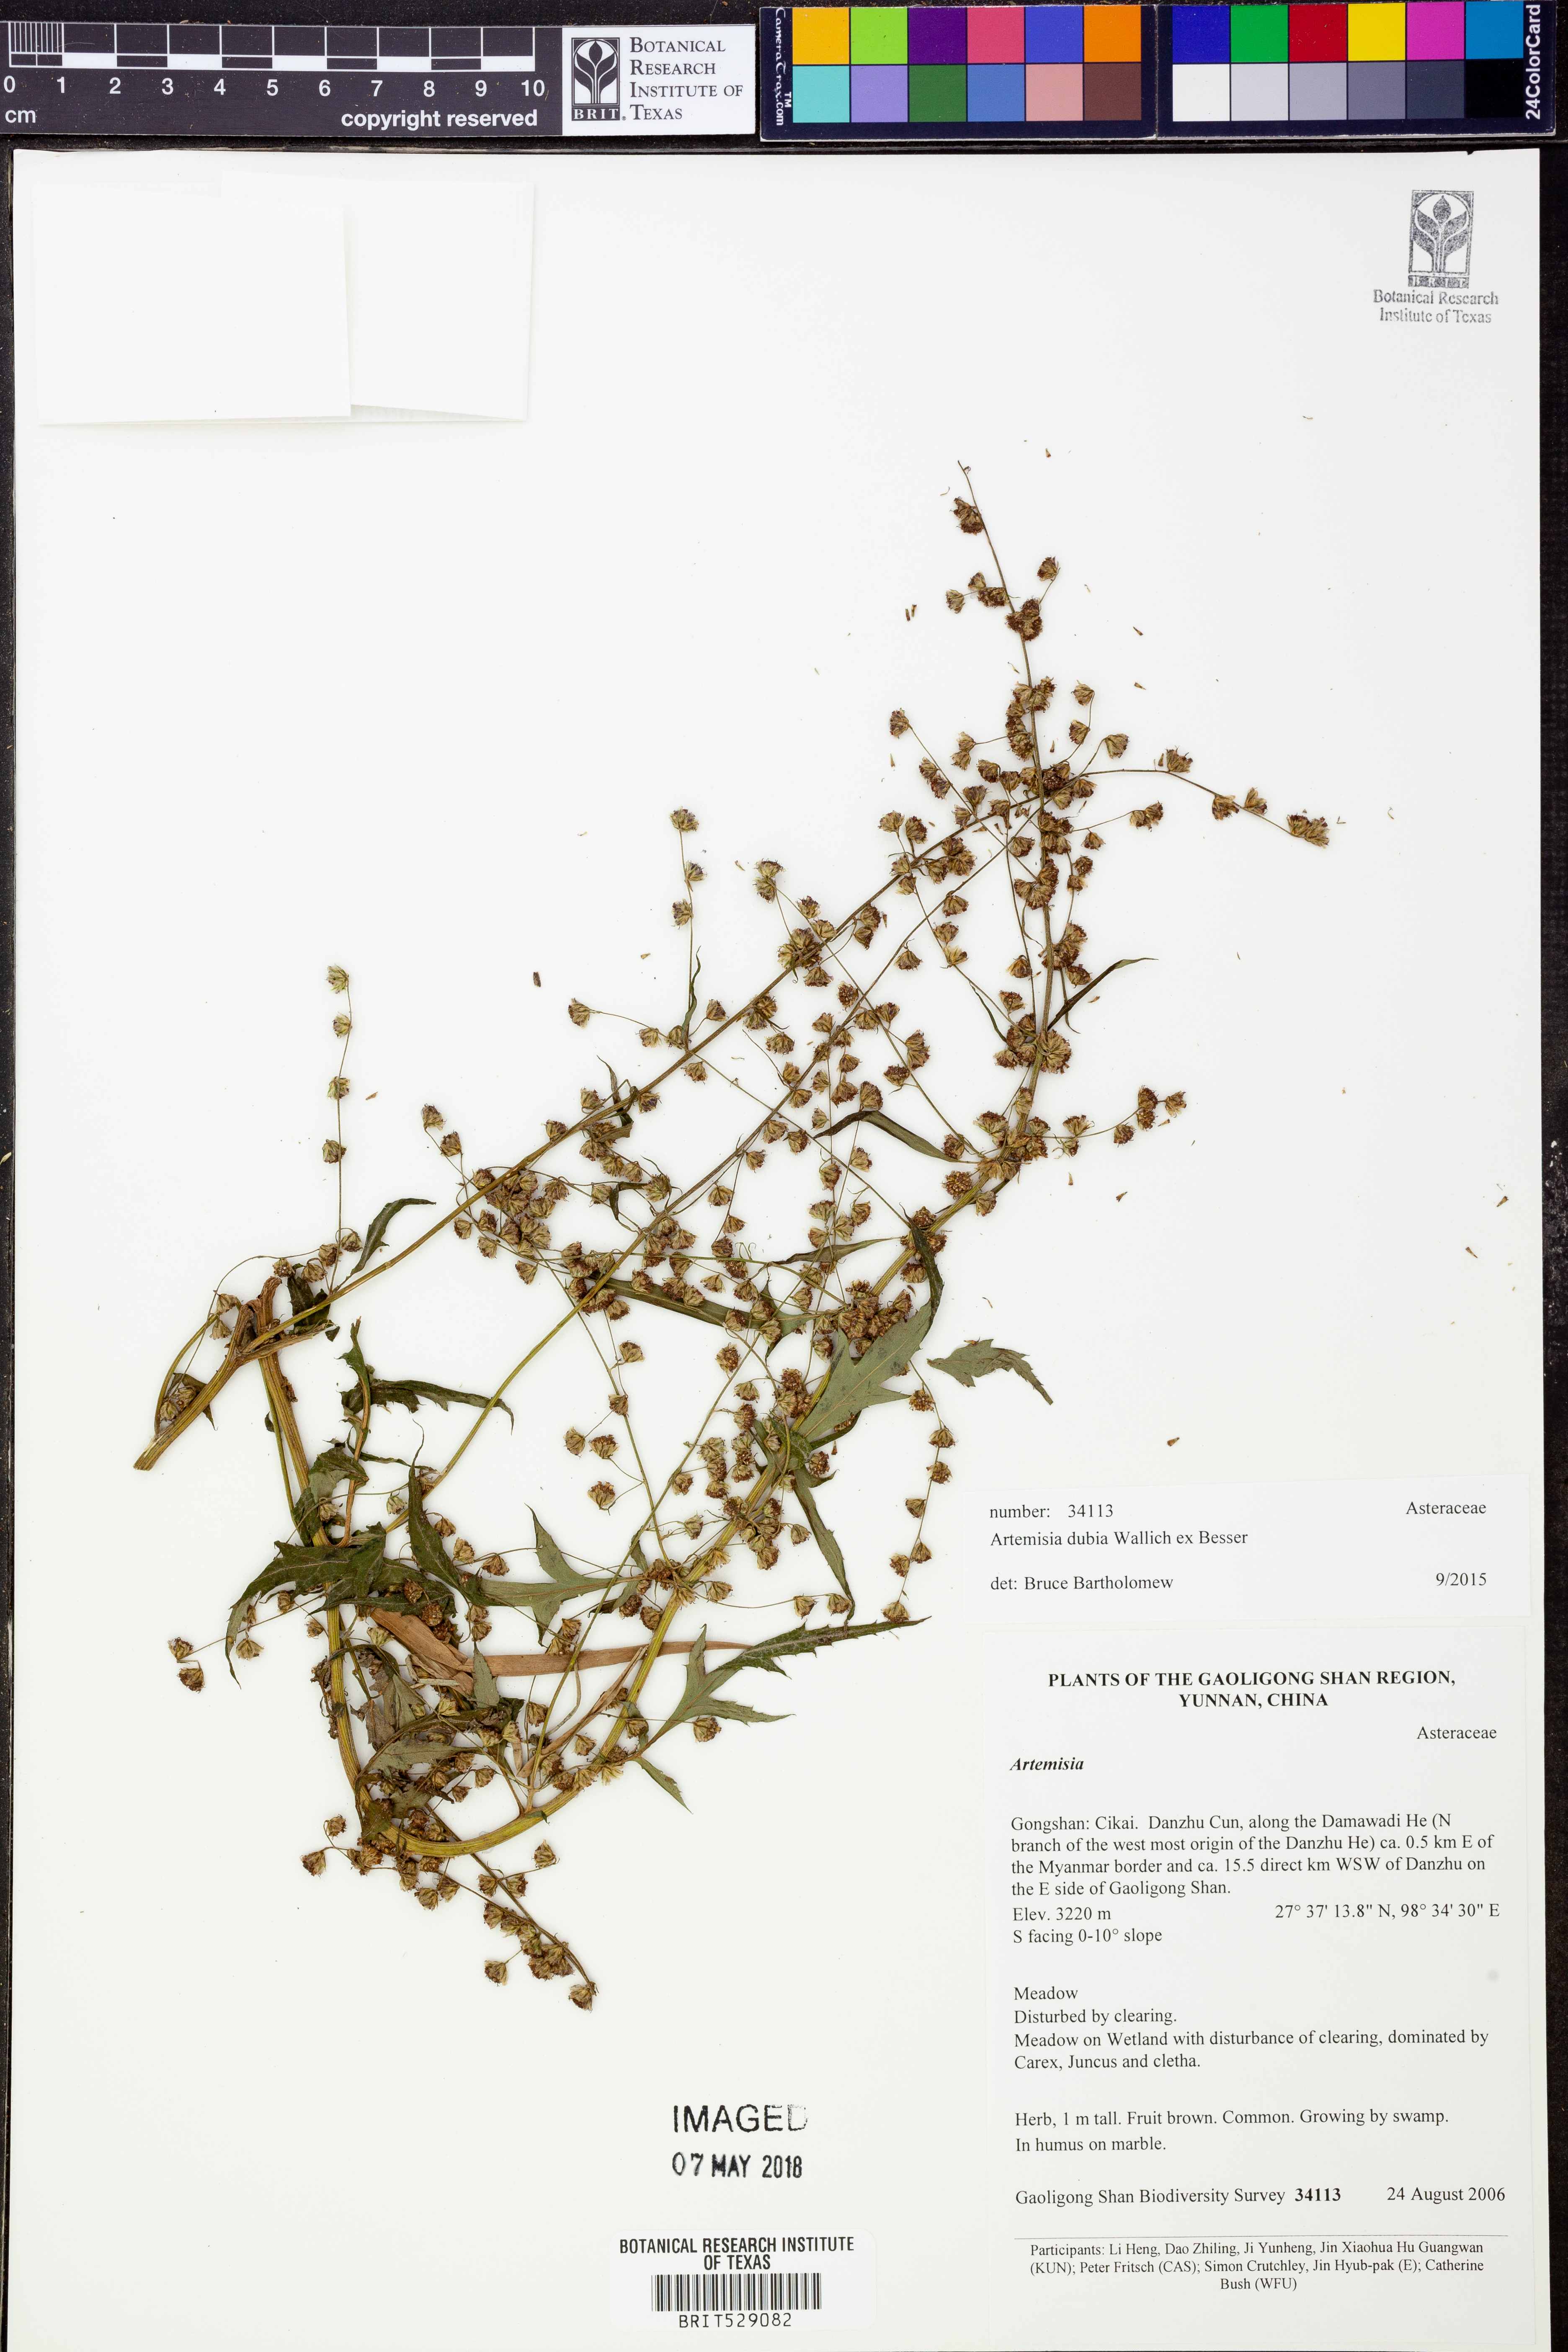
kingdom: Plantae
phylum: Tracheophyta
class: Magnoliopsida
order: Asterales
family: Asteraceae
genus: Artemisia
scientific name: Artemisia dubia
